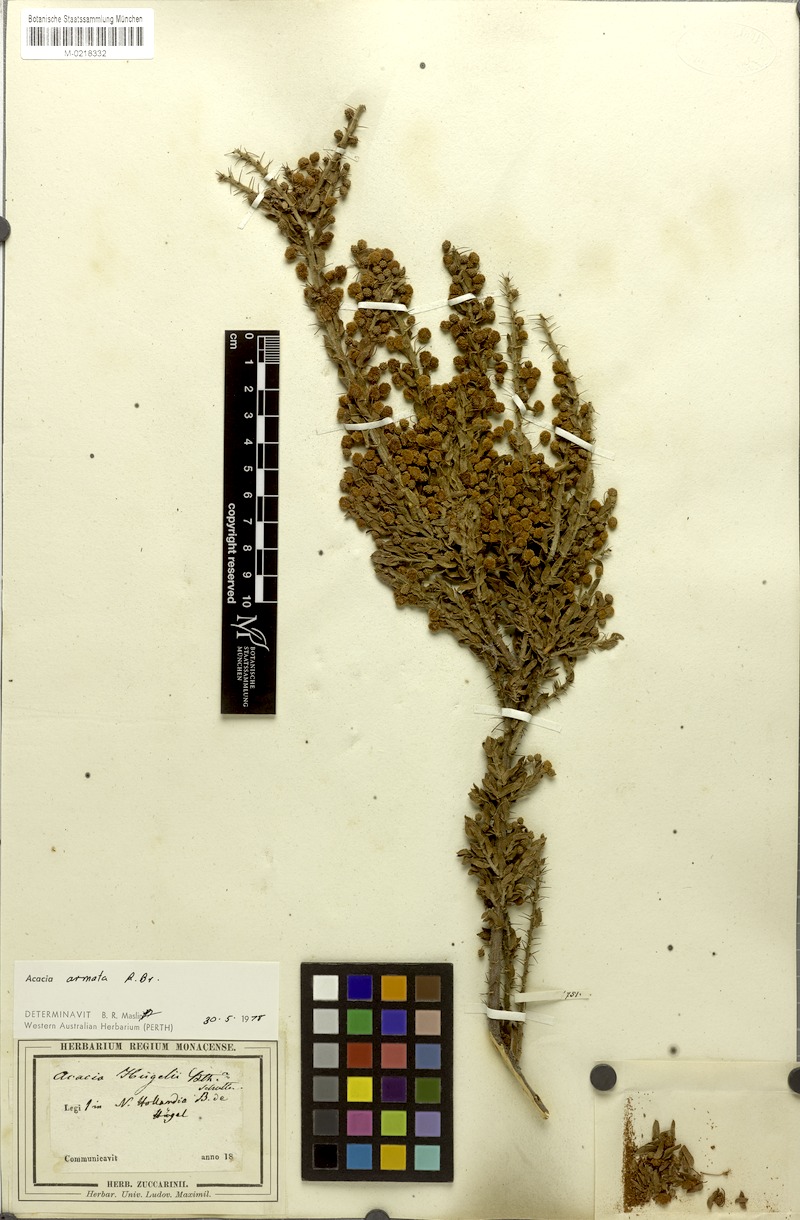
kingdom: Plantae
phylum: Tracheophyta
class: Magnoliopsida
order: Fabales
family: Fabaceae
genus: Acacia
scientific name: Acacia huegelii
